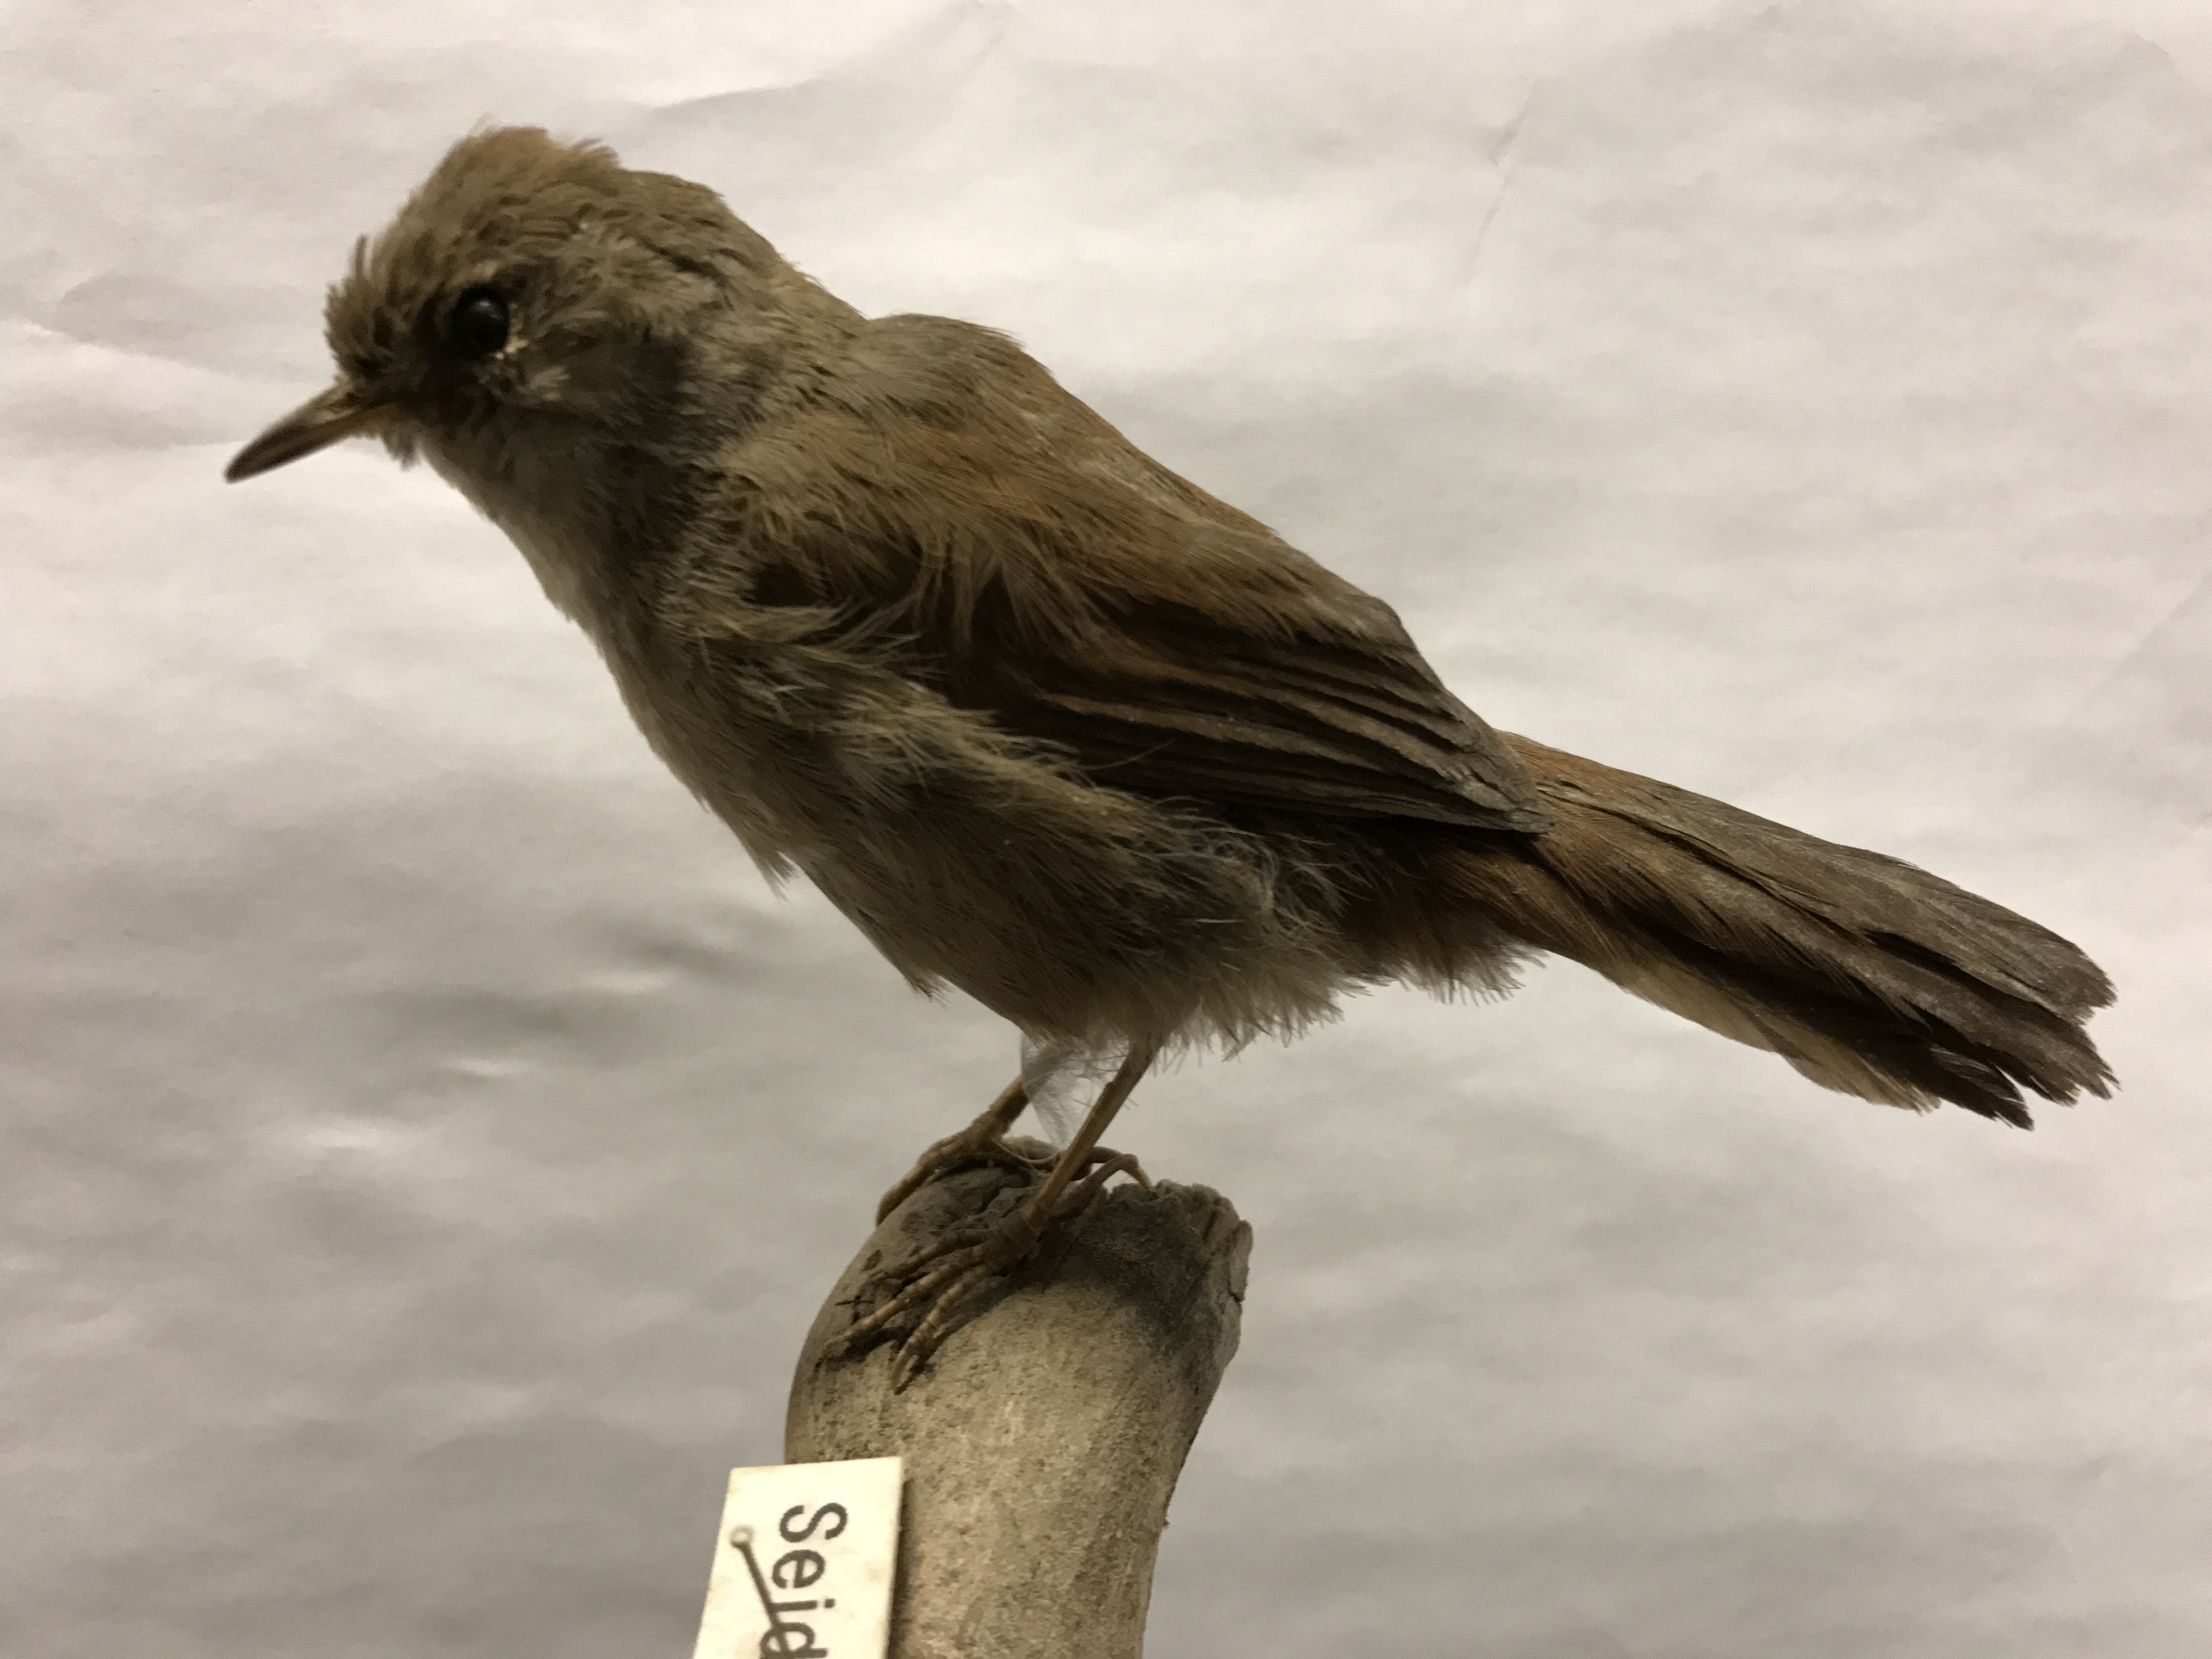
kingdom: Animalia
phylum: Chordata
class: Aves
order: Passeriformes
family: Cettiidae
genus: Cettia
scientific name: Cettia cetti
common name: Cetti's warbler
